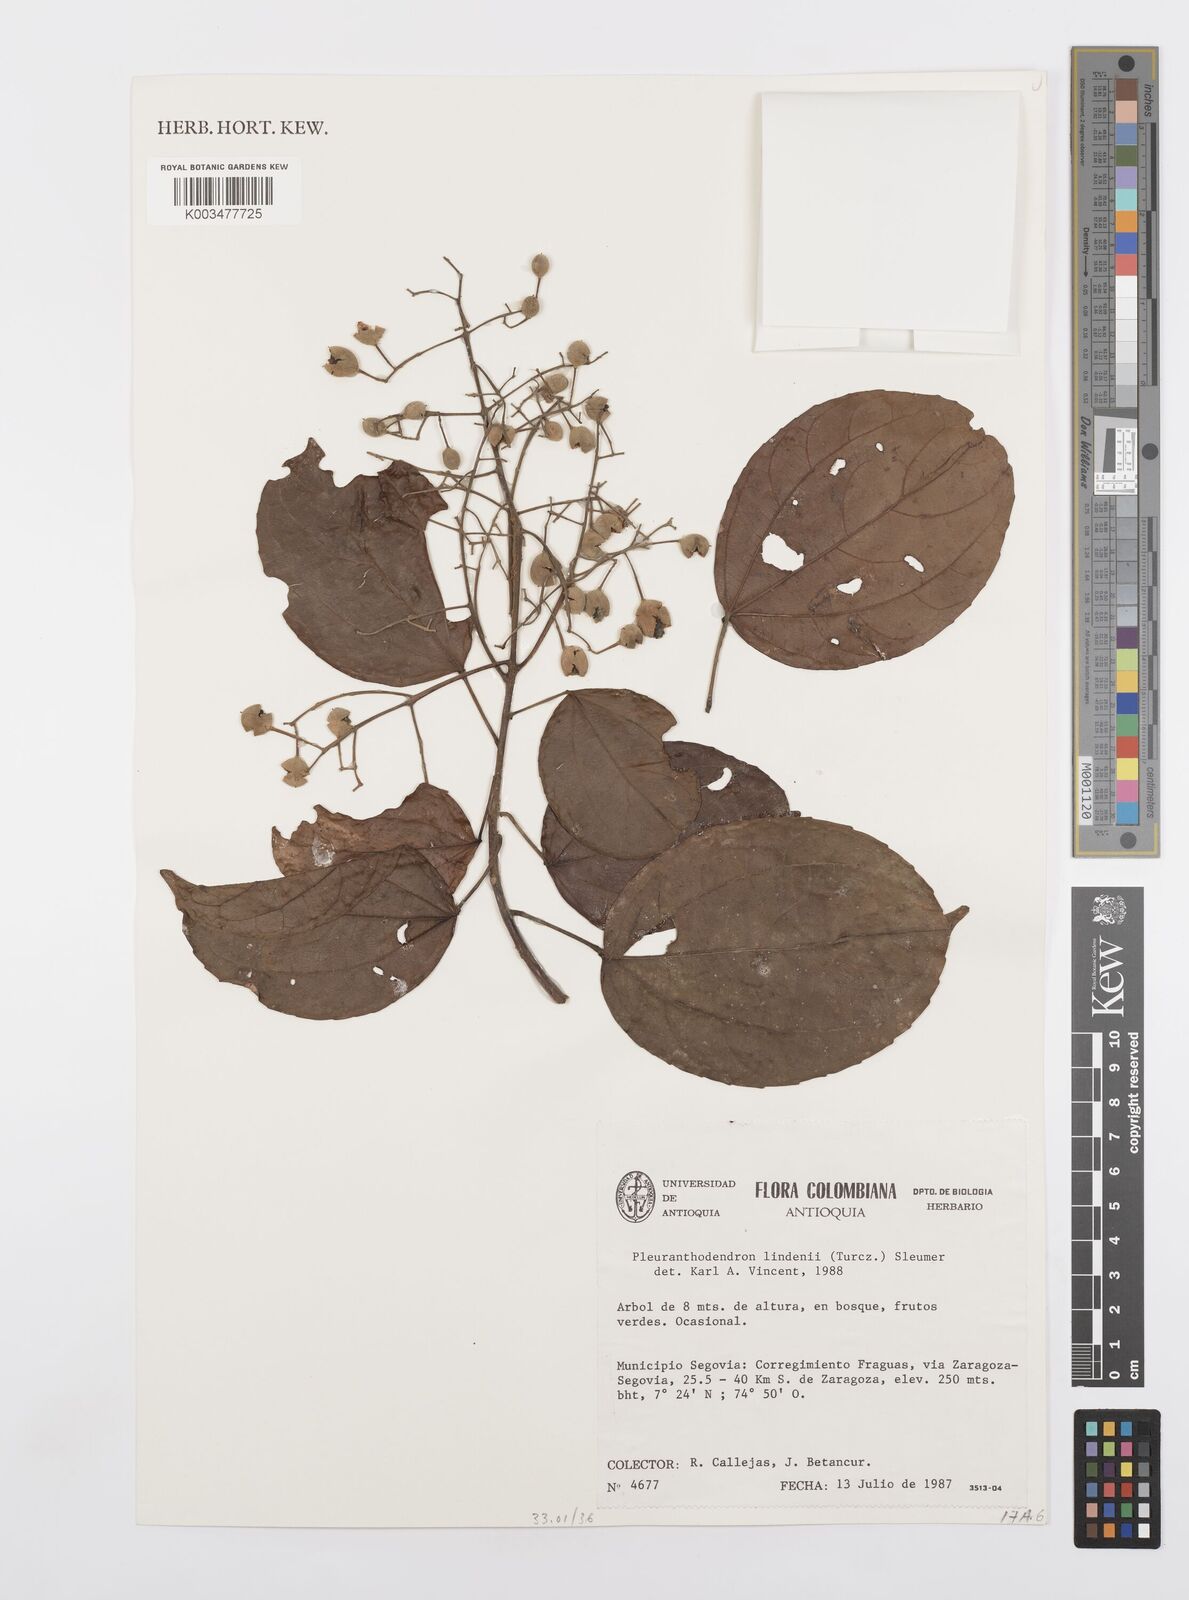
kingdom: Plantae
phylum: Tracheophyta
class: Magnoliopsida
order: Malpighiales
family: Salicaceae
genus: Pleuranthodendron
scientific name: Pleuranthodendron lindenii
